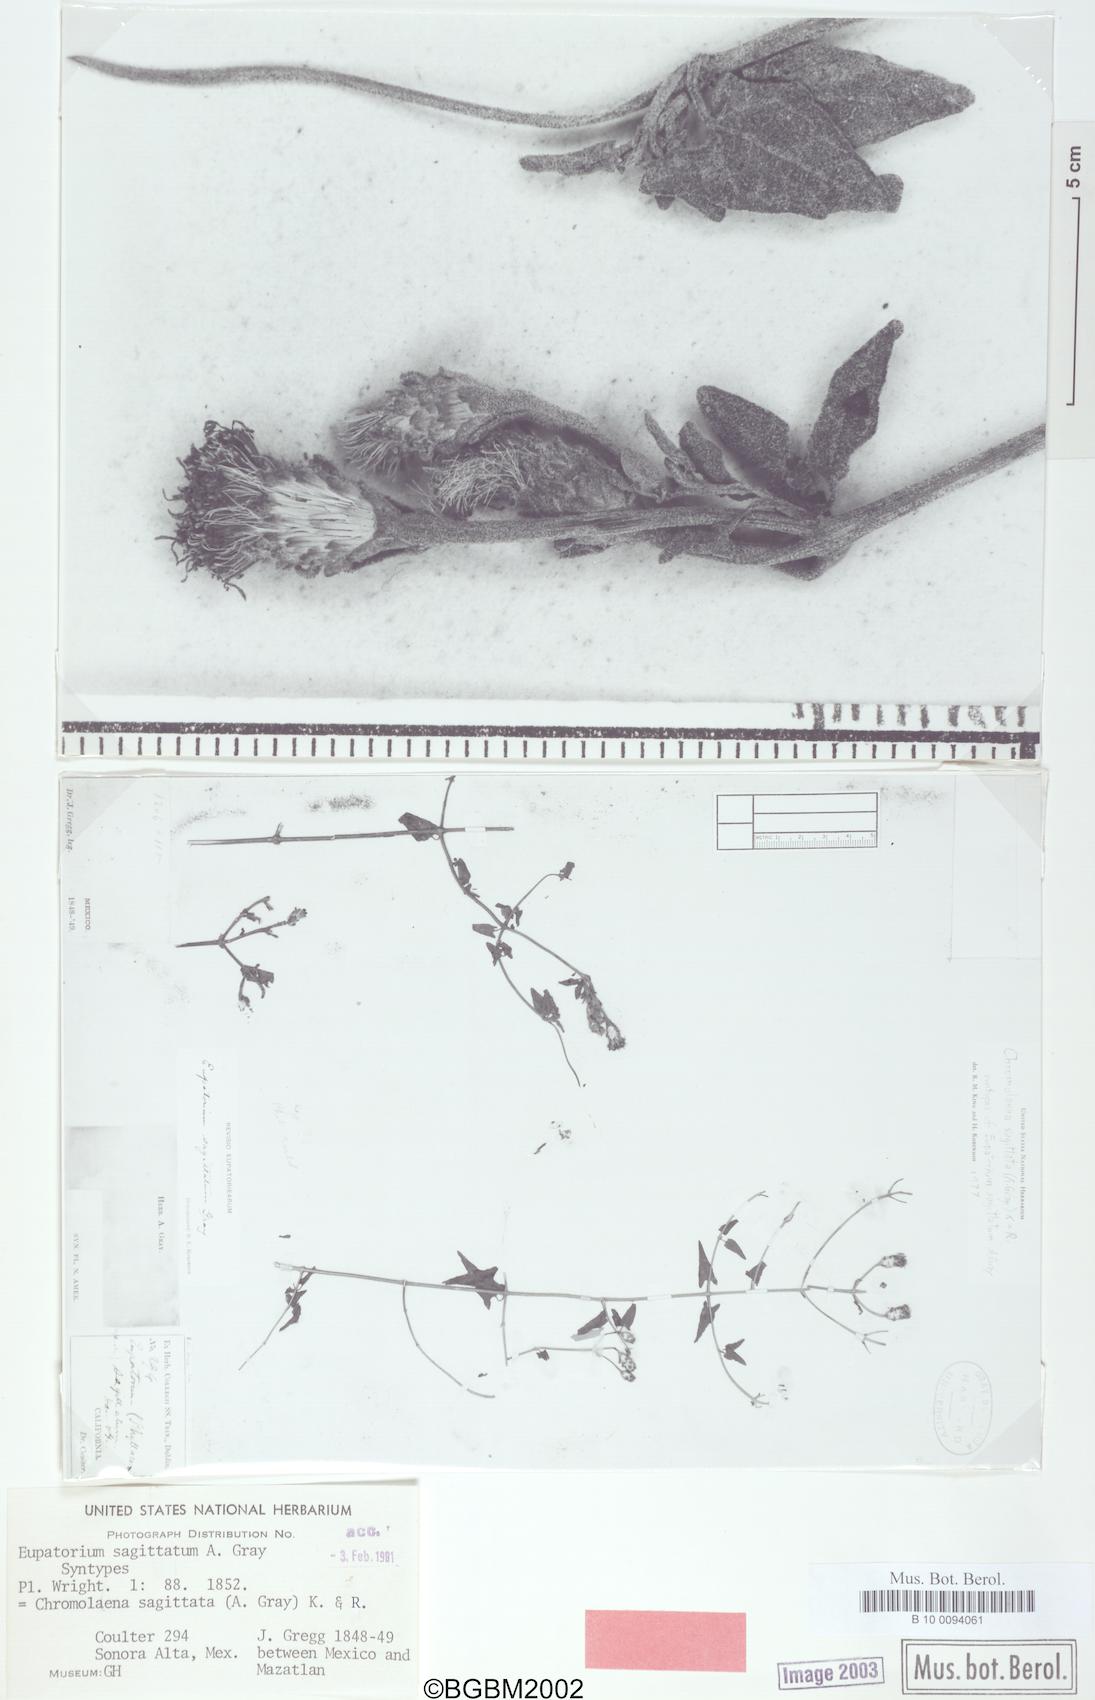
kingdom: Plantae
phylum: Tracheophyta
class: Magnoliopsida
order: Asterales
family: Asteraceae
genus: Chromolaena
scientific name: Chromolaena sagittata
